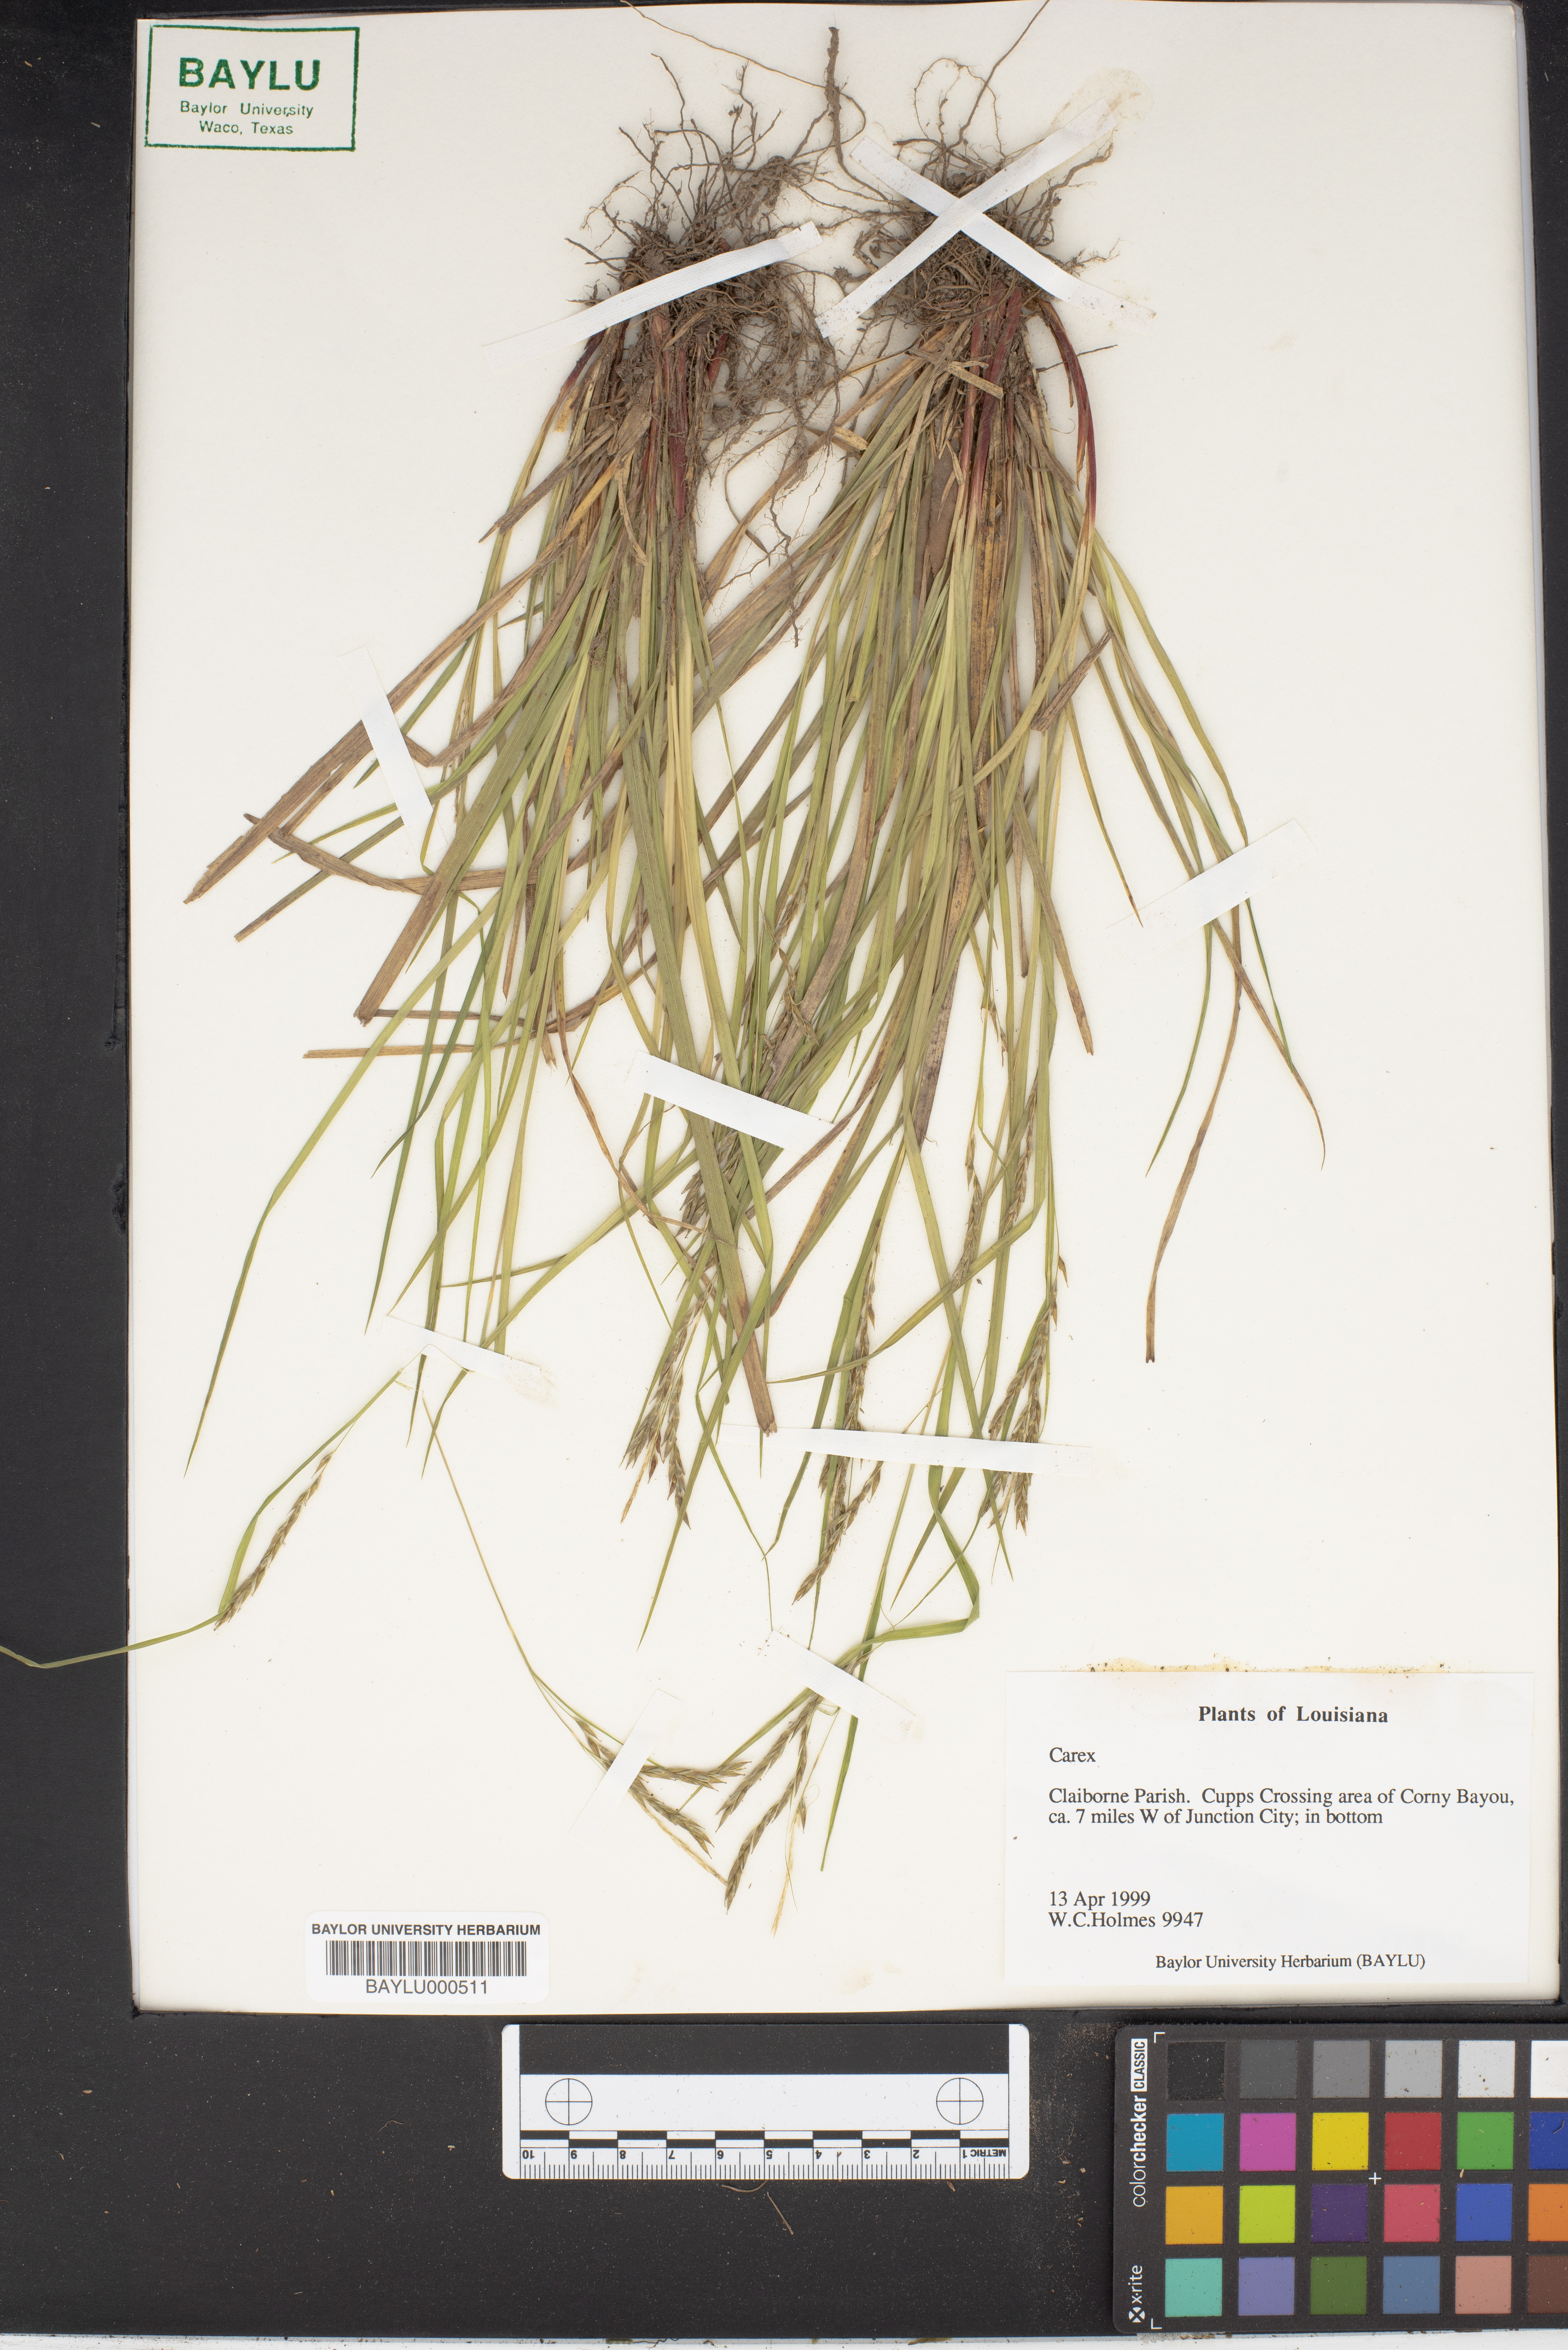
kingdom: Plantae
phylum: Tracheophyta
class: Liliopsida
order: Poales
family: Cyperaceae
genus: Carex
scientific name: Carex
